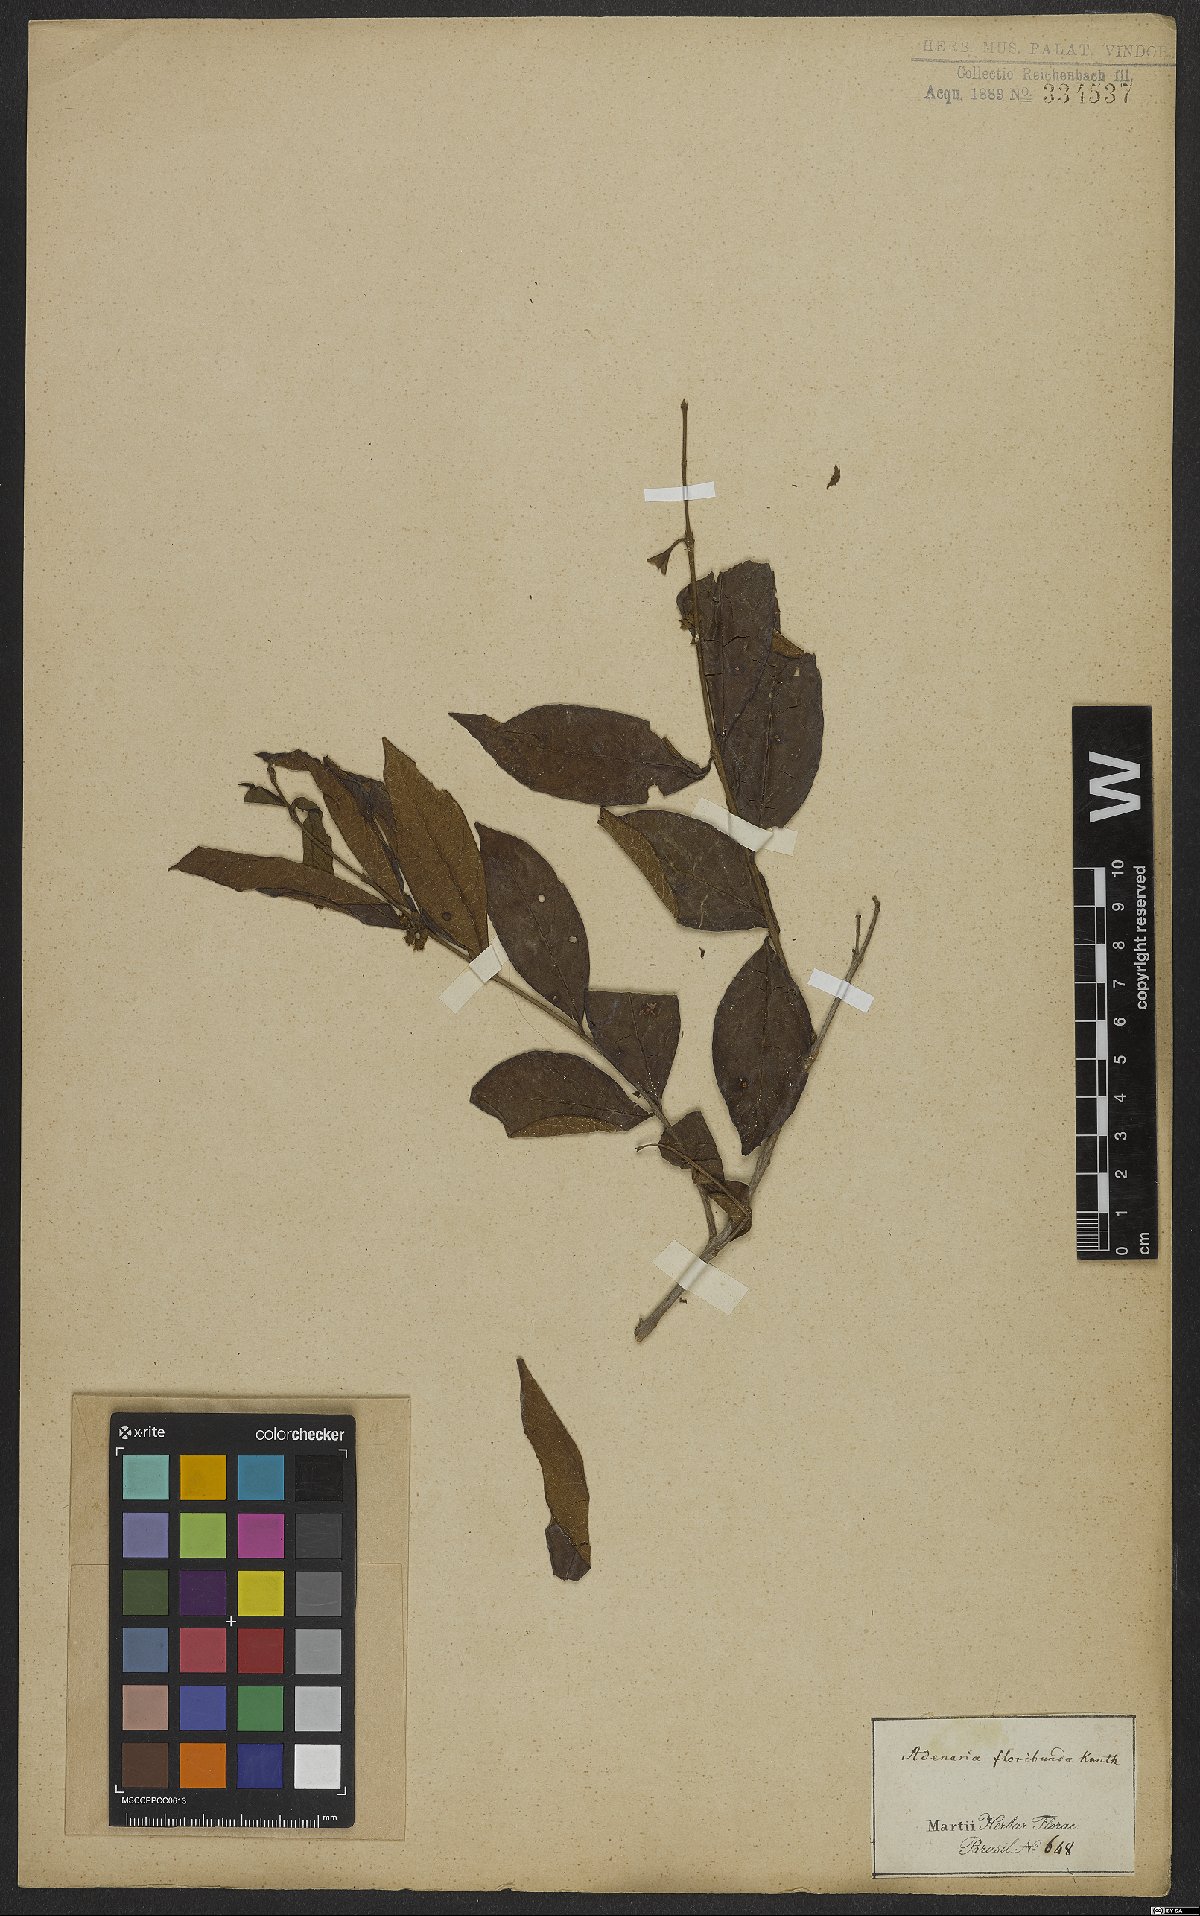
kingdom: Plantae
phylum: Tracheophyta
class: Magnoliopsida
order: Myrtales
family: Lythraceae
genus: Adenaria
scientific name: Adenaria floribunda
